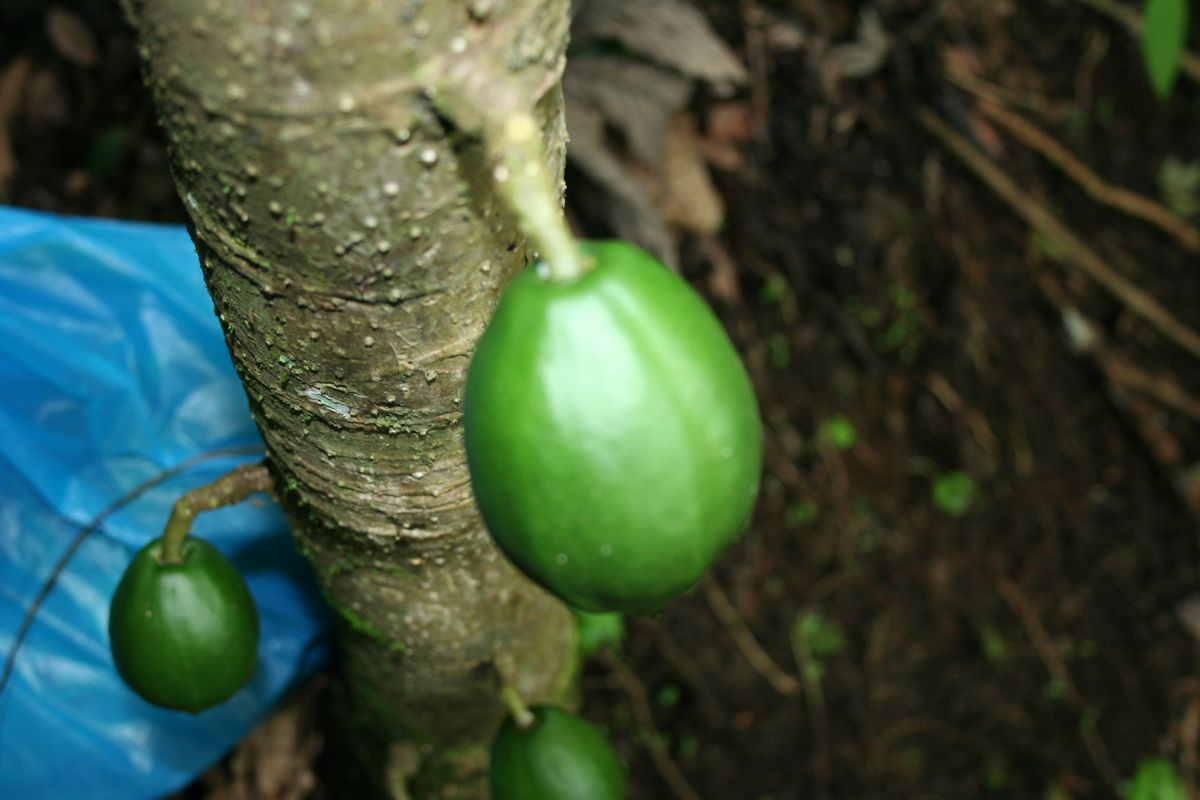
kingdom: Plantae
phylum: Tracheophyta
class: Magnoliopsida
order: Brassicales
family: Caricaceae
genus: Vasconcellea
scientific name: Vasconcellea cauliflora
